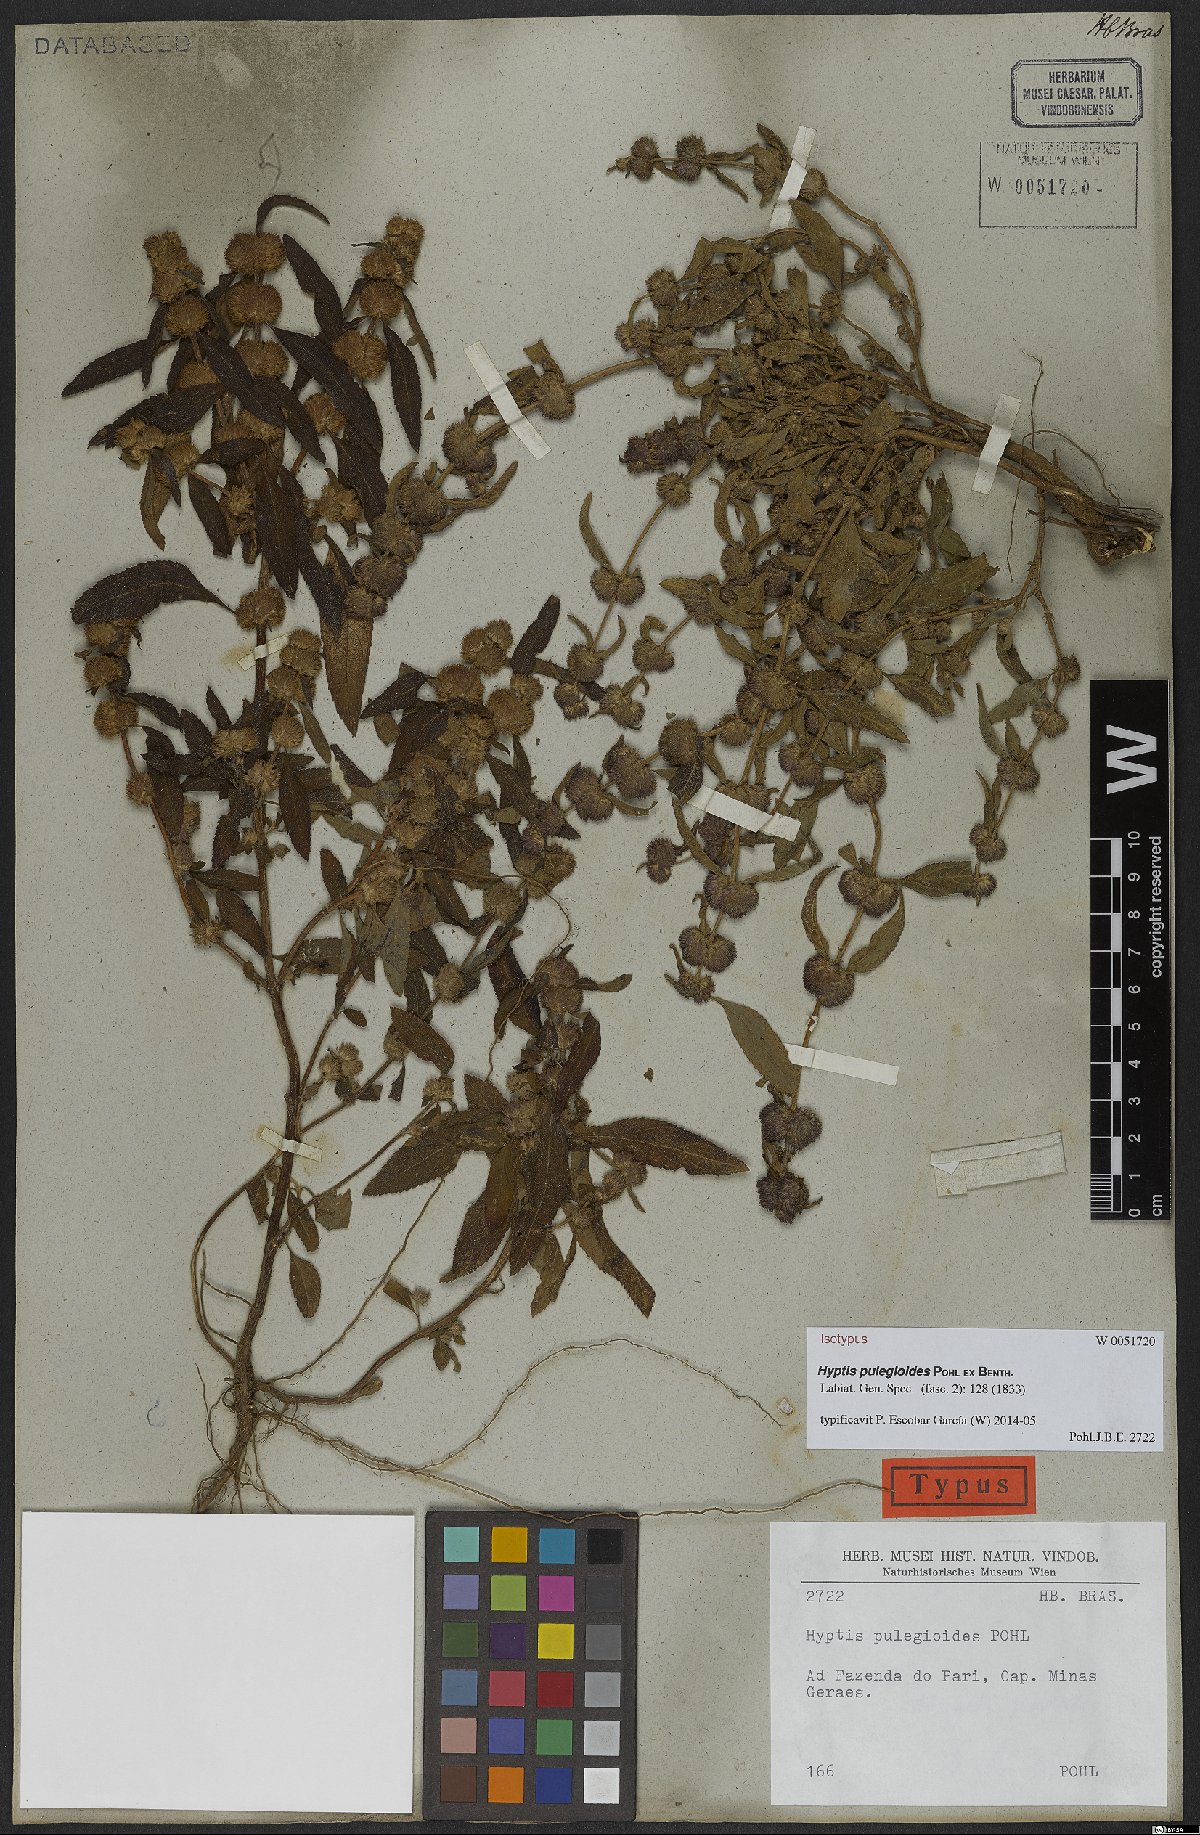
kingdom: Plantae
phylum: Tracheophyta
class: Magnoliopsida
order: Lamiales
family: Lamiaceae
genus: Hyptis
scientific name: Hyptis pulegioides
